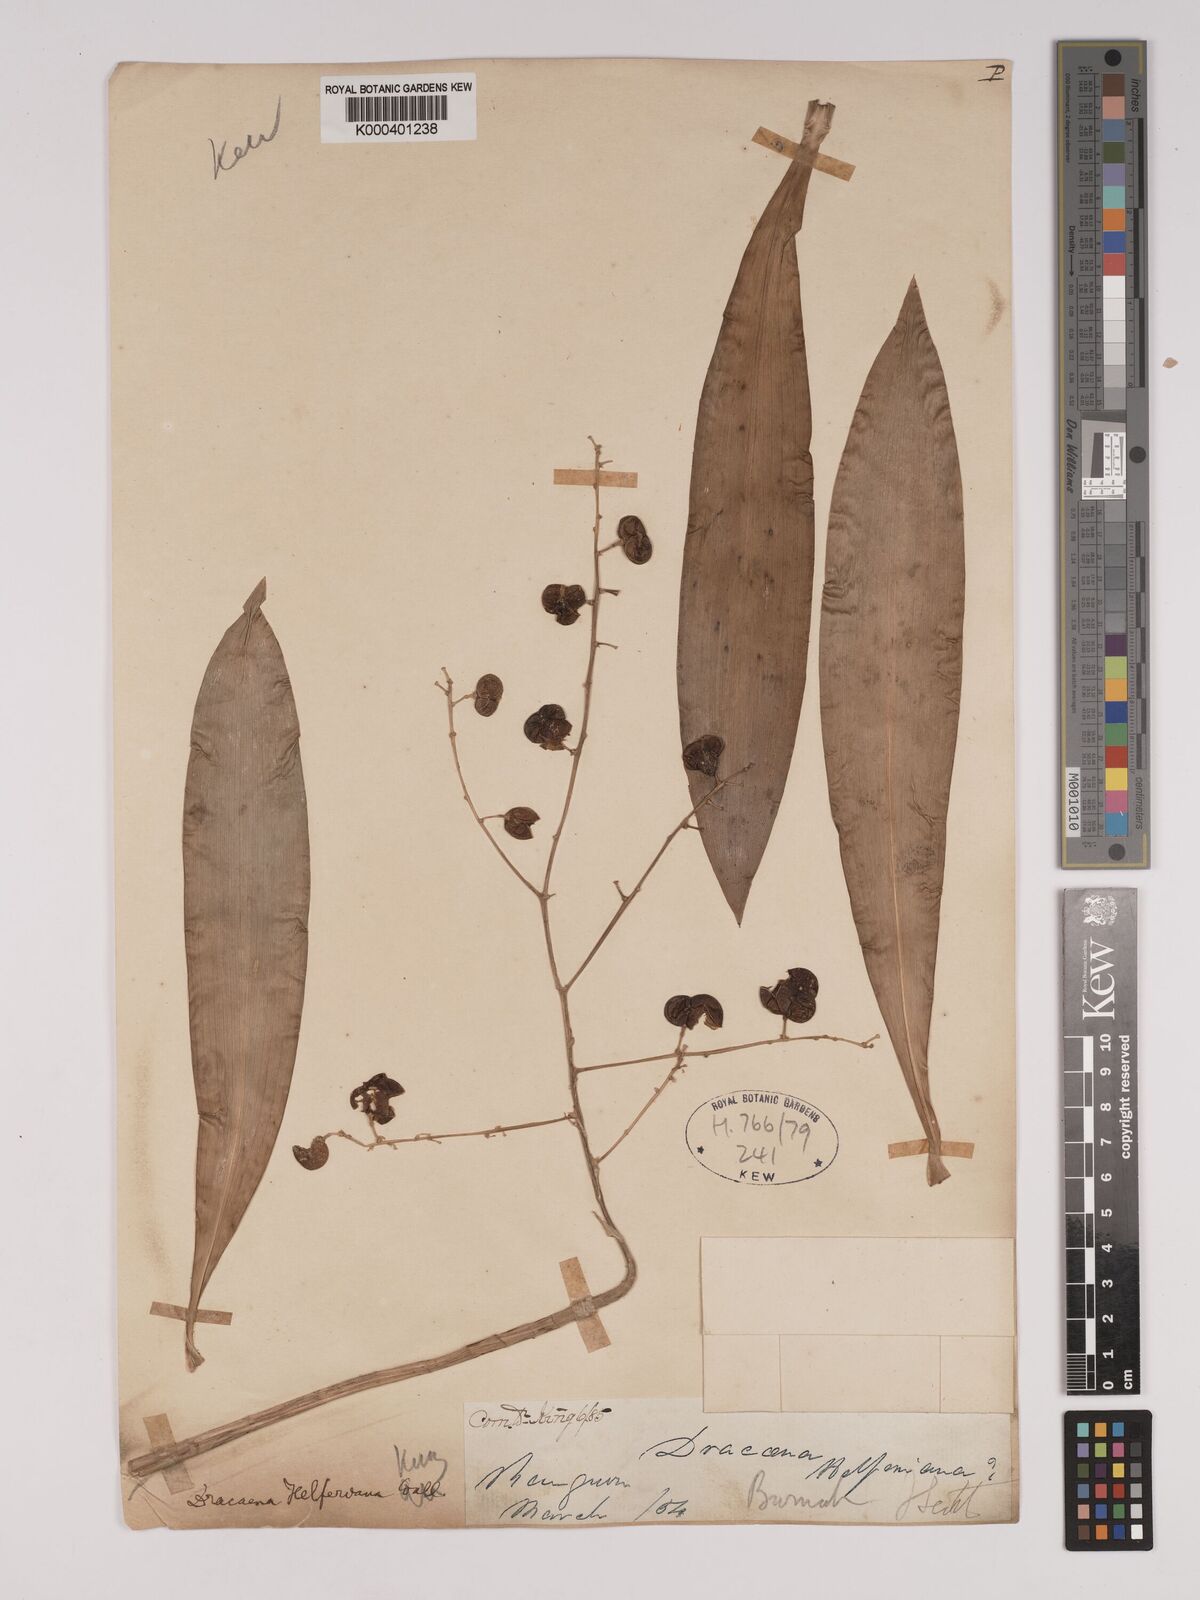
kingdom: Plantae
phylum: Tracheophyta
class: Liliopsida
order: Asparagales
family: Asparagaceae
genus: Dracaena
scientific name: Dracaena griffithii
